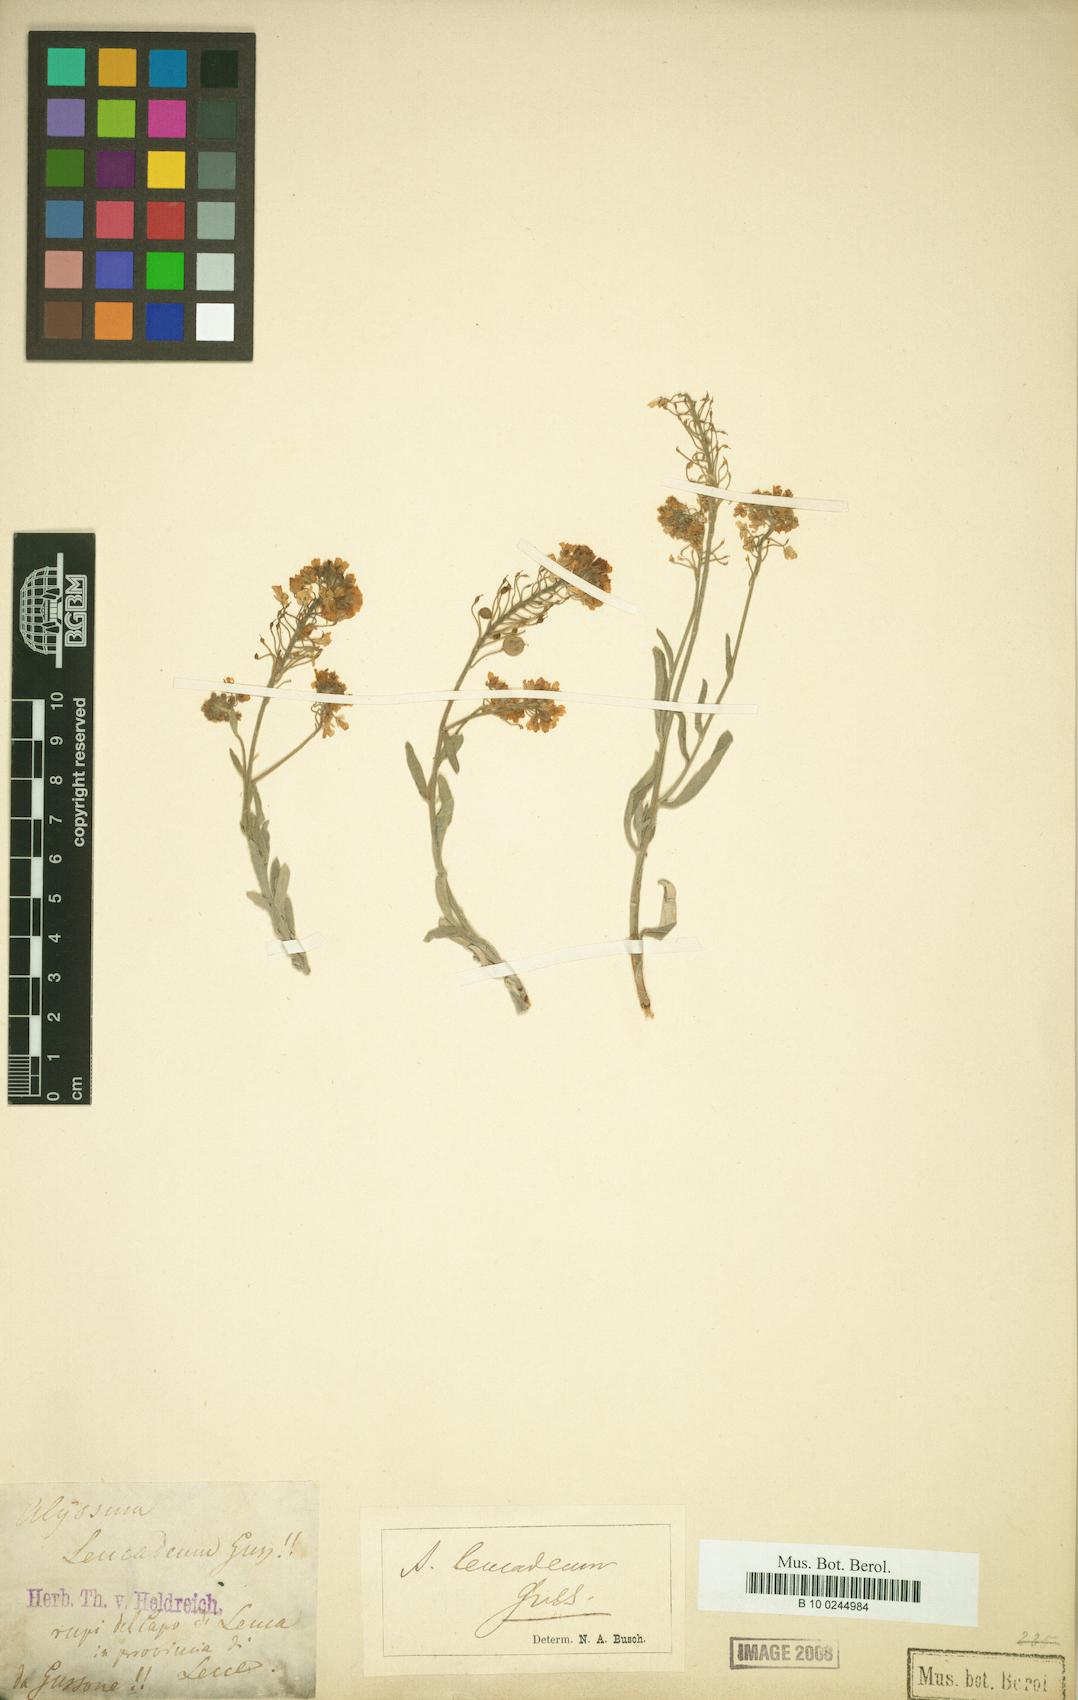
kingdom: Plantae
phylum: Tracheophyta
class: Magnoliopsida
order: Brassicales
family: Brassicaceae
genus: Aurinia
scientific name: Aurinia leucadea
